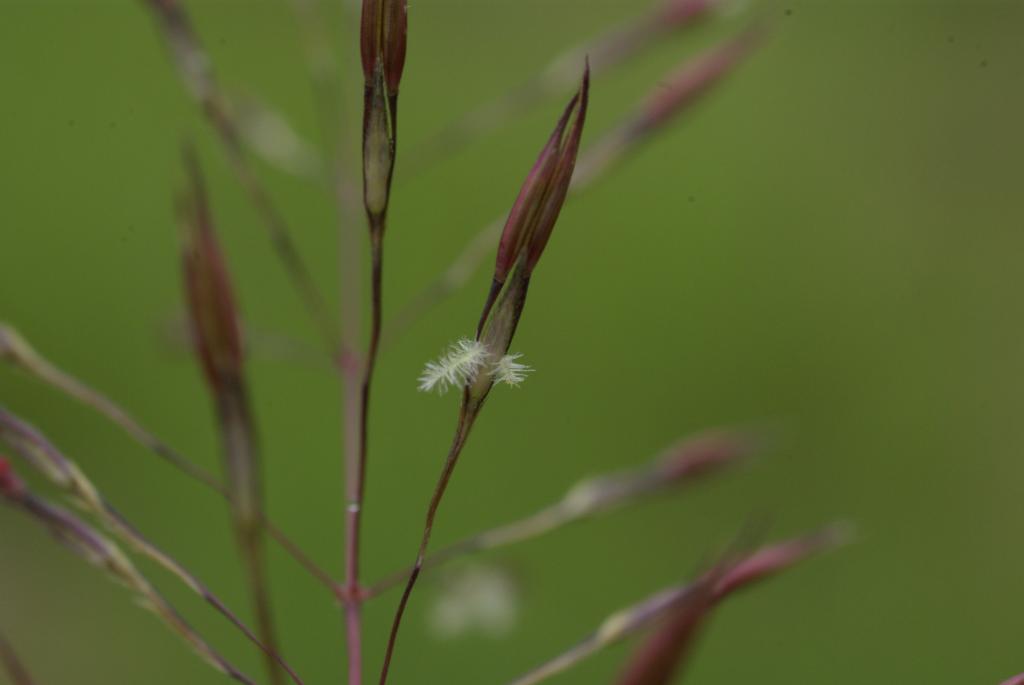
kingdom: Plantae
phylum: Tracheophyta
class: Liliopsida
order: Poales
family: Poaceae
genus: Chrysopogon
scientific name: Chrysopogon aciculatus
